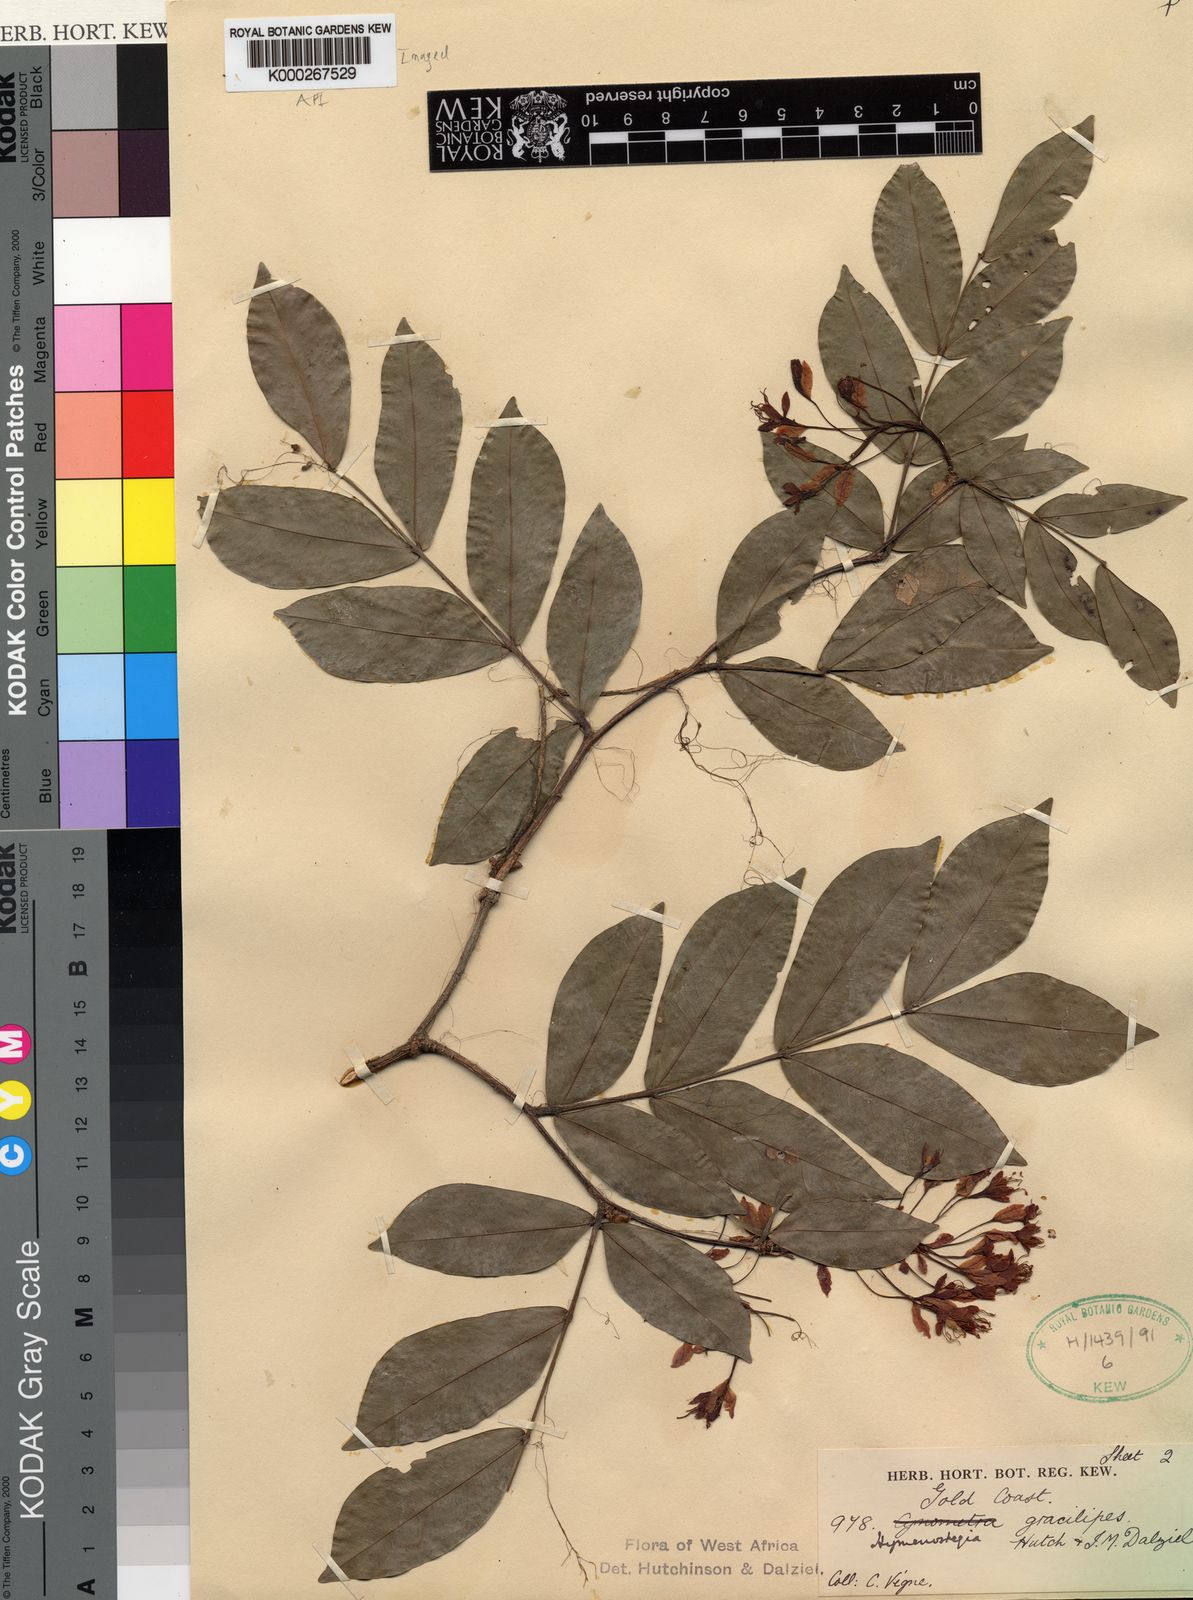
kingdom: Plantae
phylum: Tracheophyta
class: Magnoliopsida
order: Fabales
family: Fabaceae
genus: Hymenostegia
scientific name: Hymenostegia gracilipes
